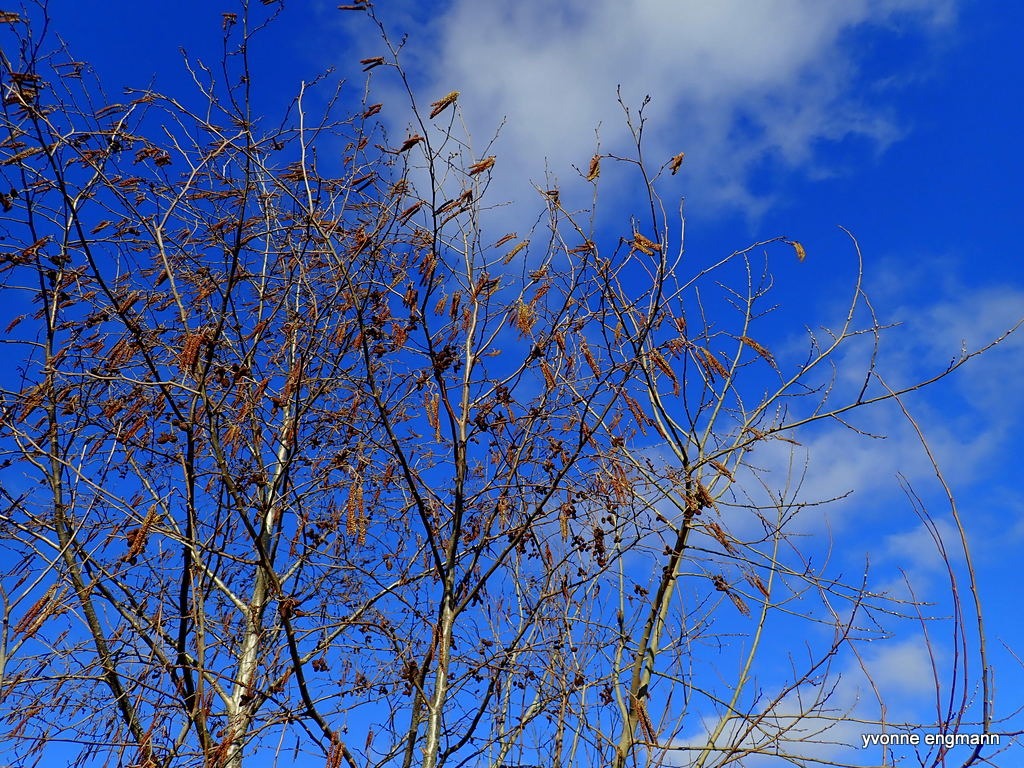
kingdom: Plantae
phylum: Tracheophyta
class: Magnoliopsida
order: Fagales
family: Betulaceae
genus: Alnus
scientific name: Alnus glutinosa
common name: Rød-el
